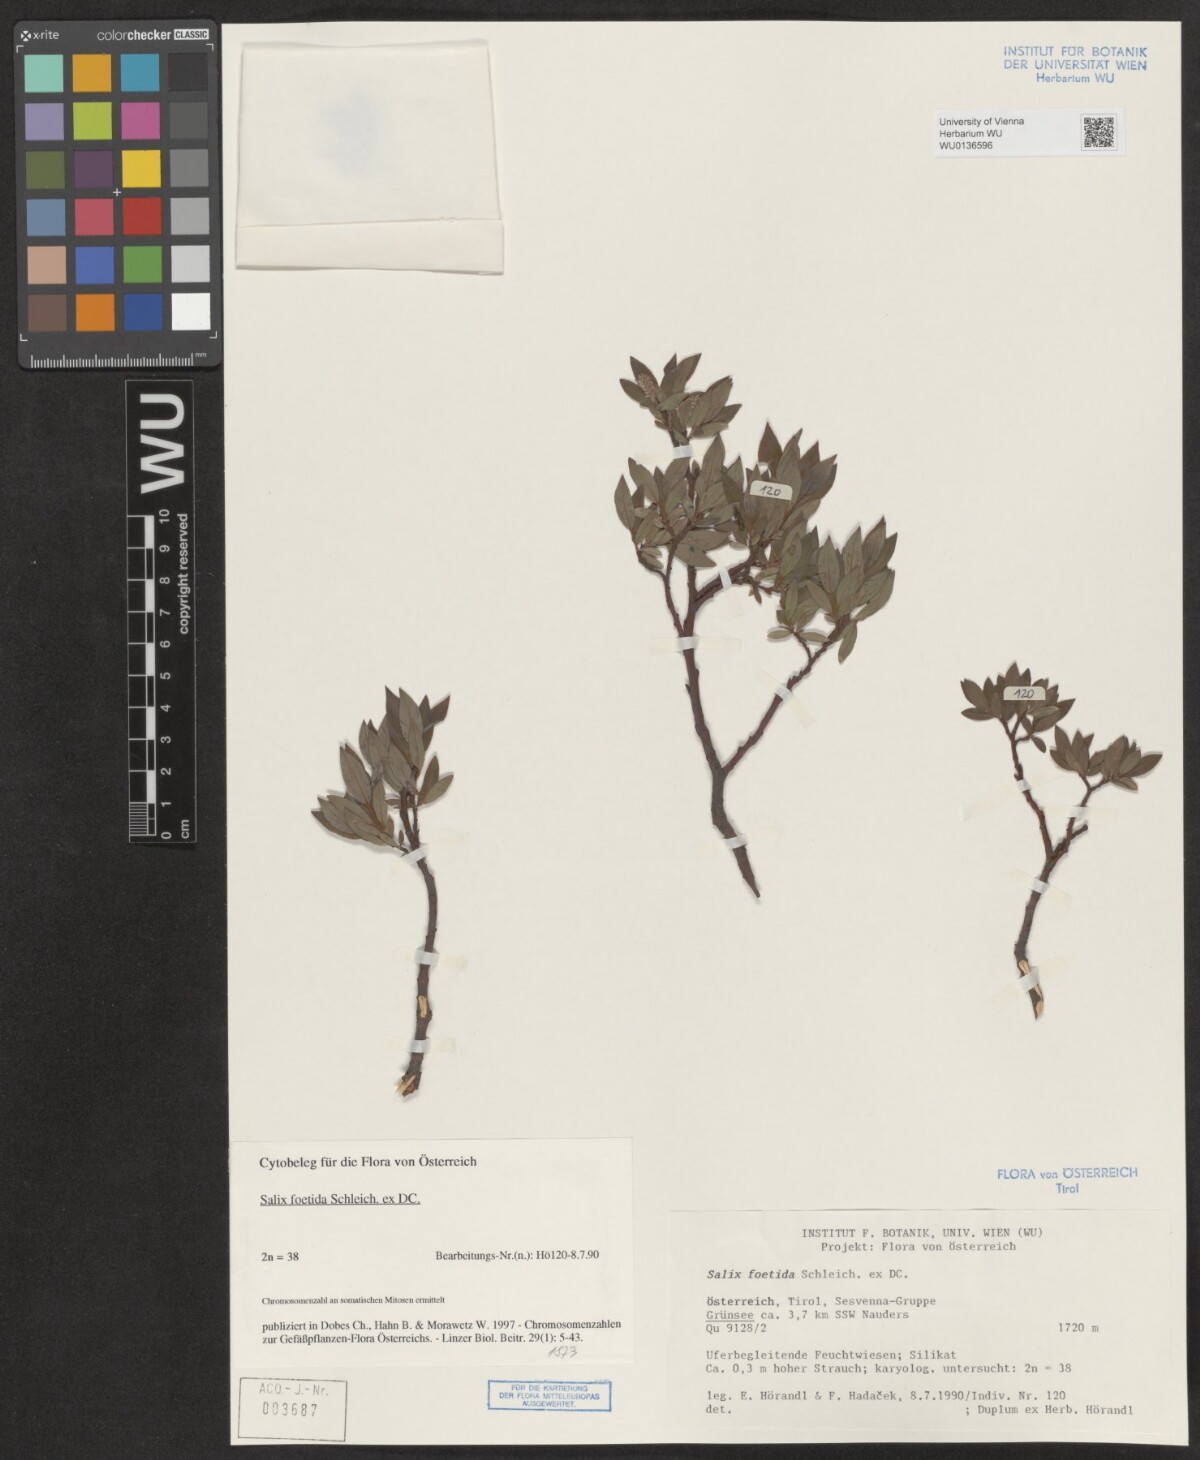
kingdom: Plantae
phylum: Tracheophyta
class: Magnoliopsida
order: Malpighiales
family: Salicaceae
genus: Salix
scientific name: Salix foetida
